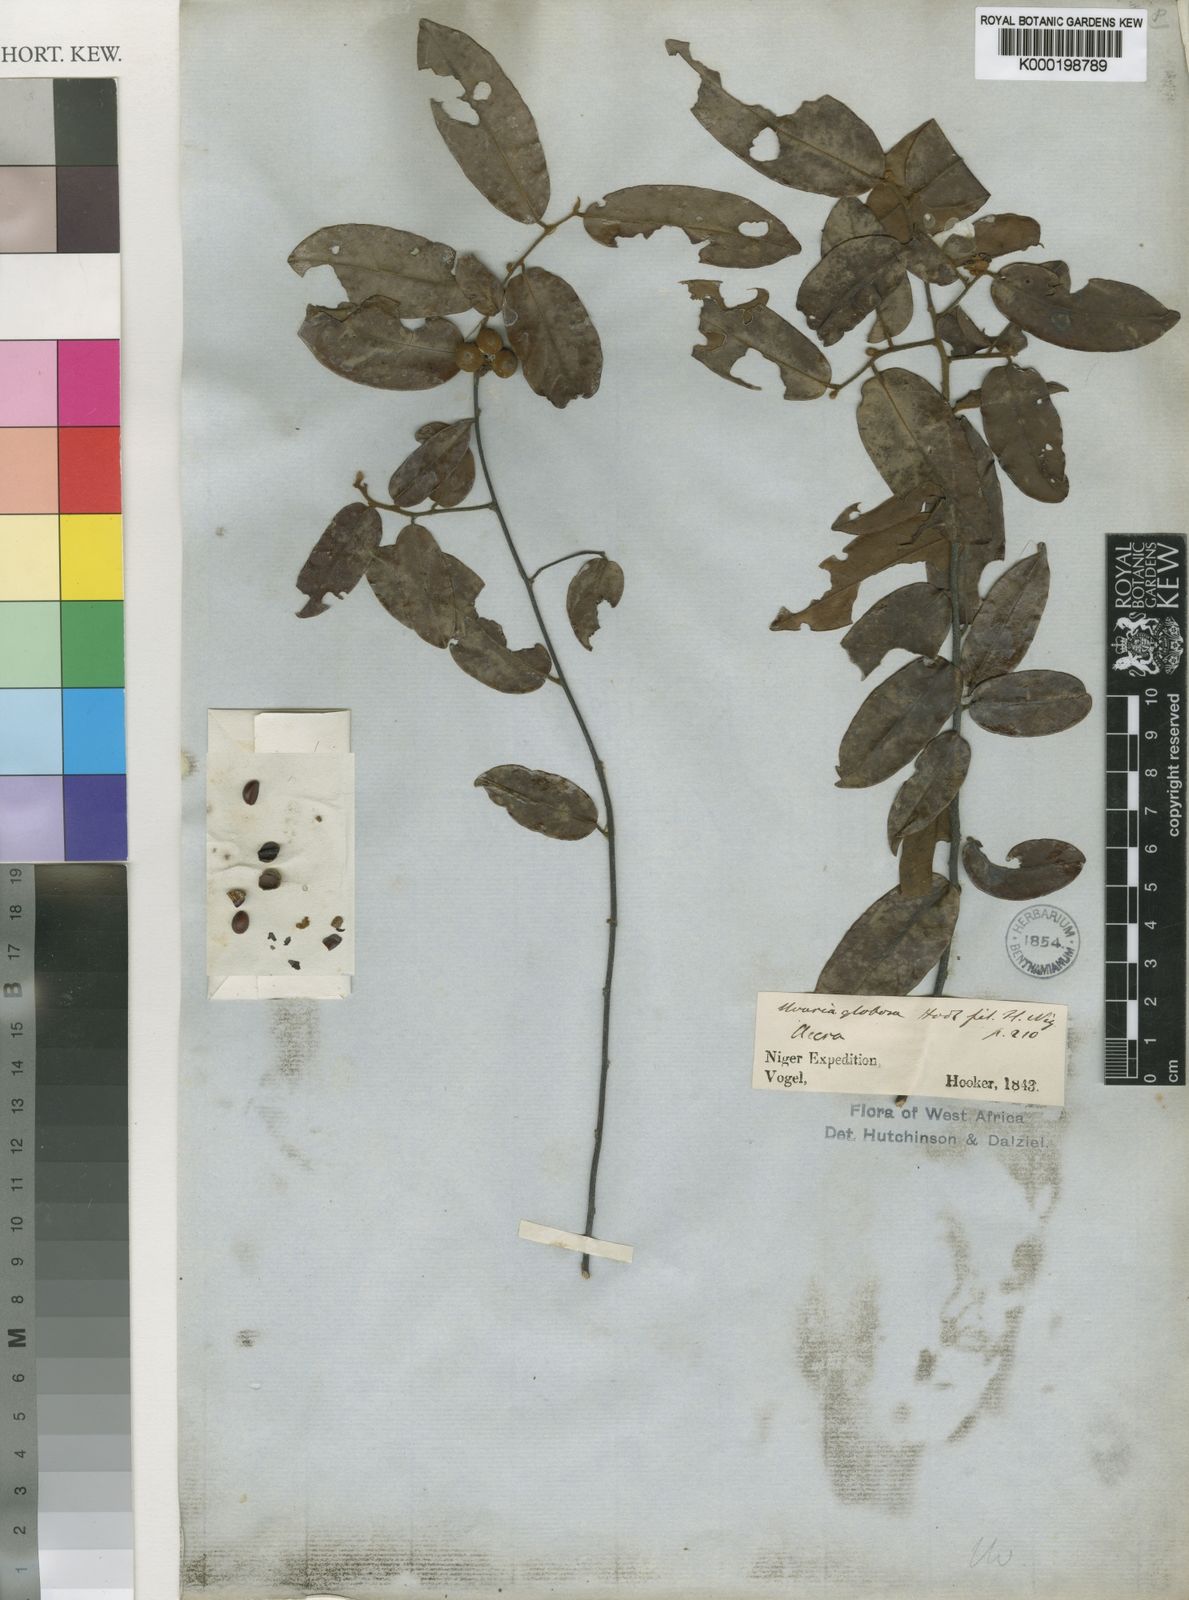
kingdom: Plantae
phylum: Tracheophyta
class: Magnoliopsida
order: Magnoliales
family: Annonaceae
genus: Uvaria
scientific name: Uvaria ovata
